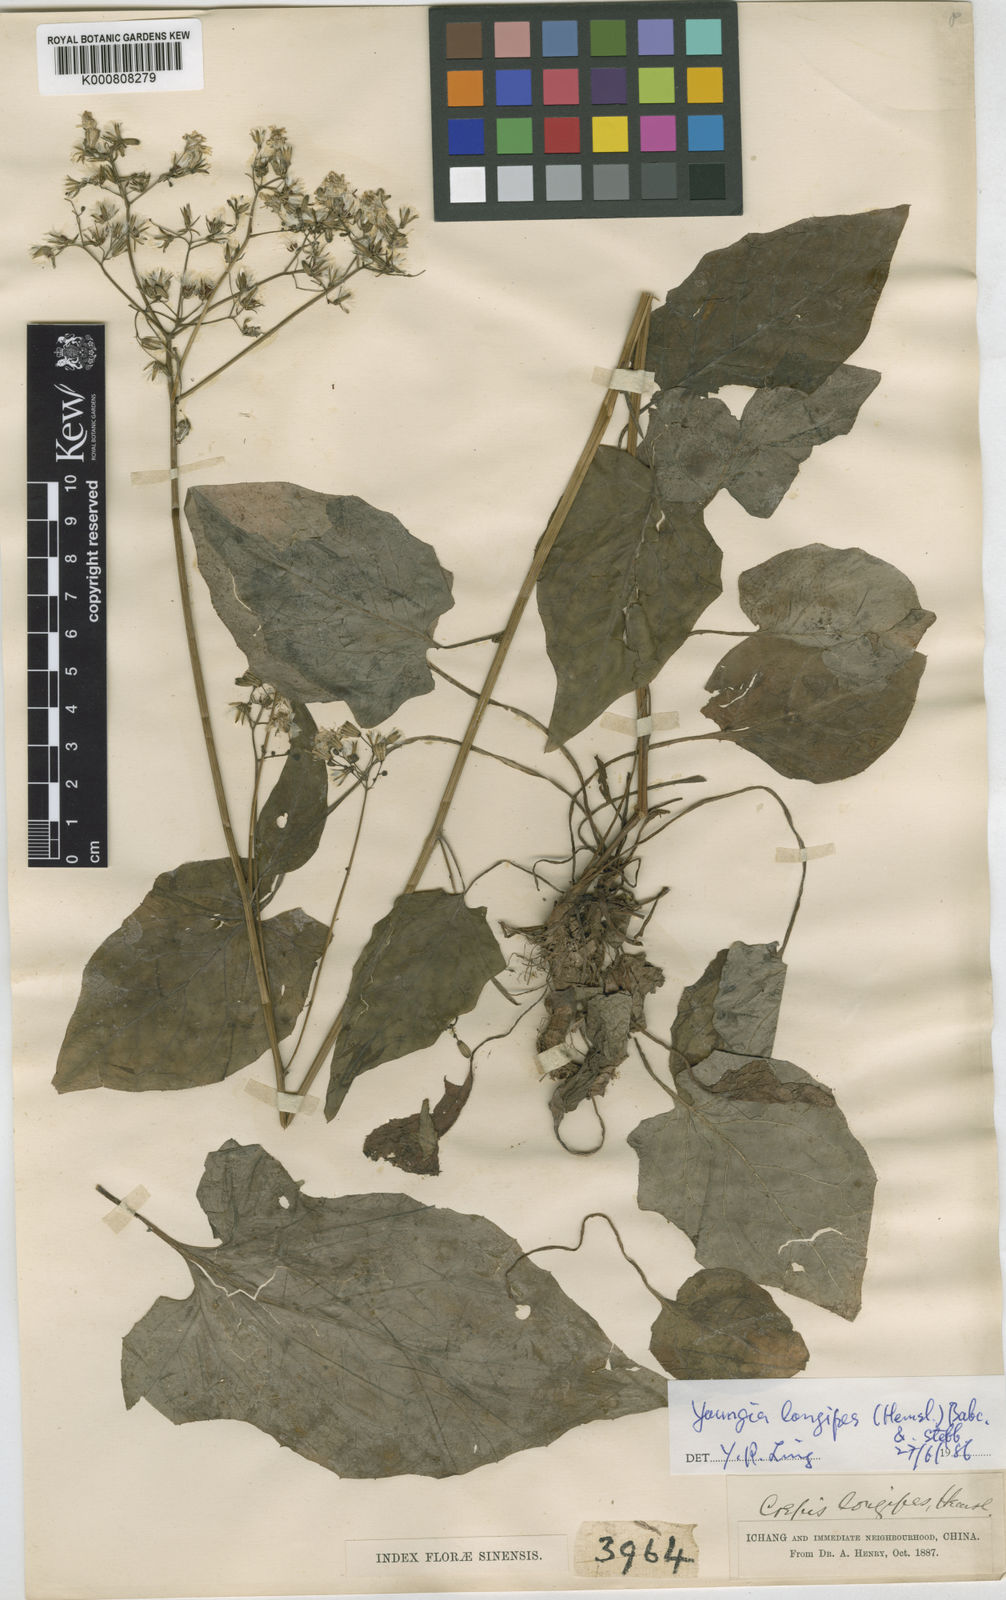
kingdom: Plantae
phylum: Tracheophyta
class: Magnoliopsida
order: Asterales
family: Asteraceae
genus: Youngia
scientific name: Youngia longipes
